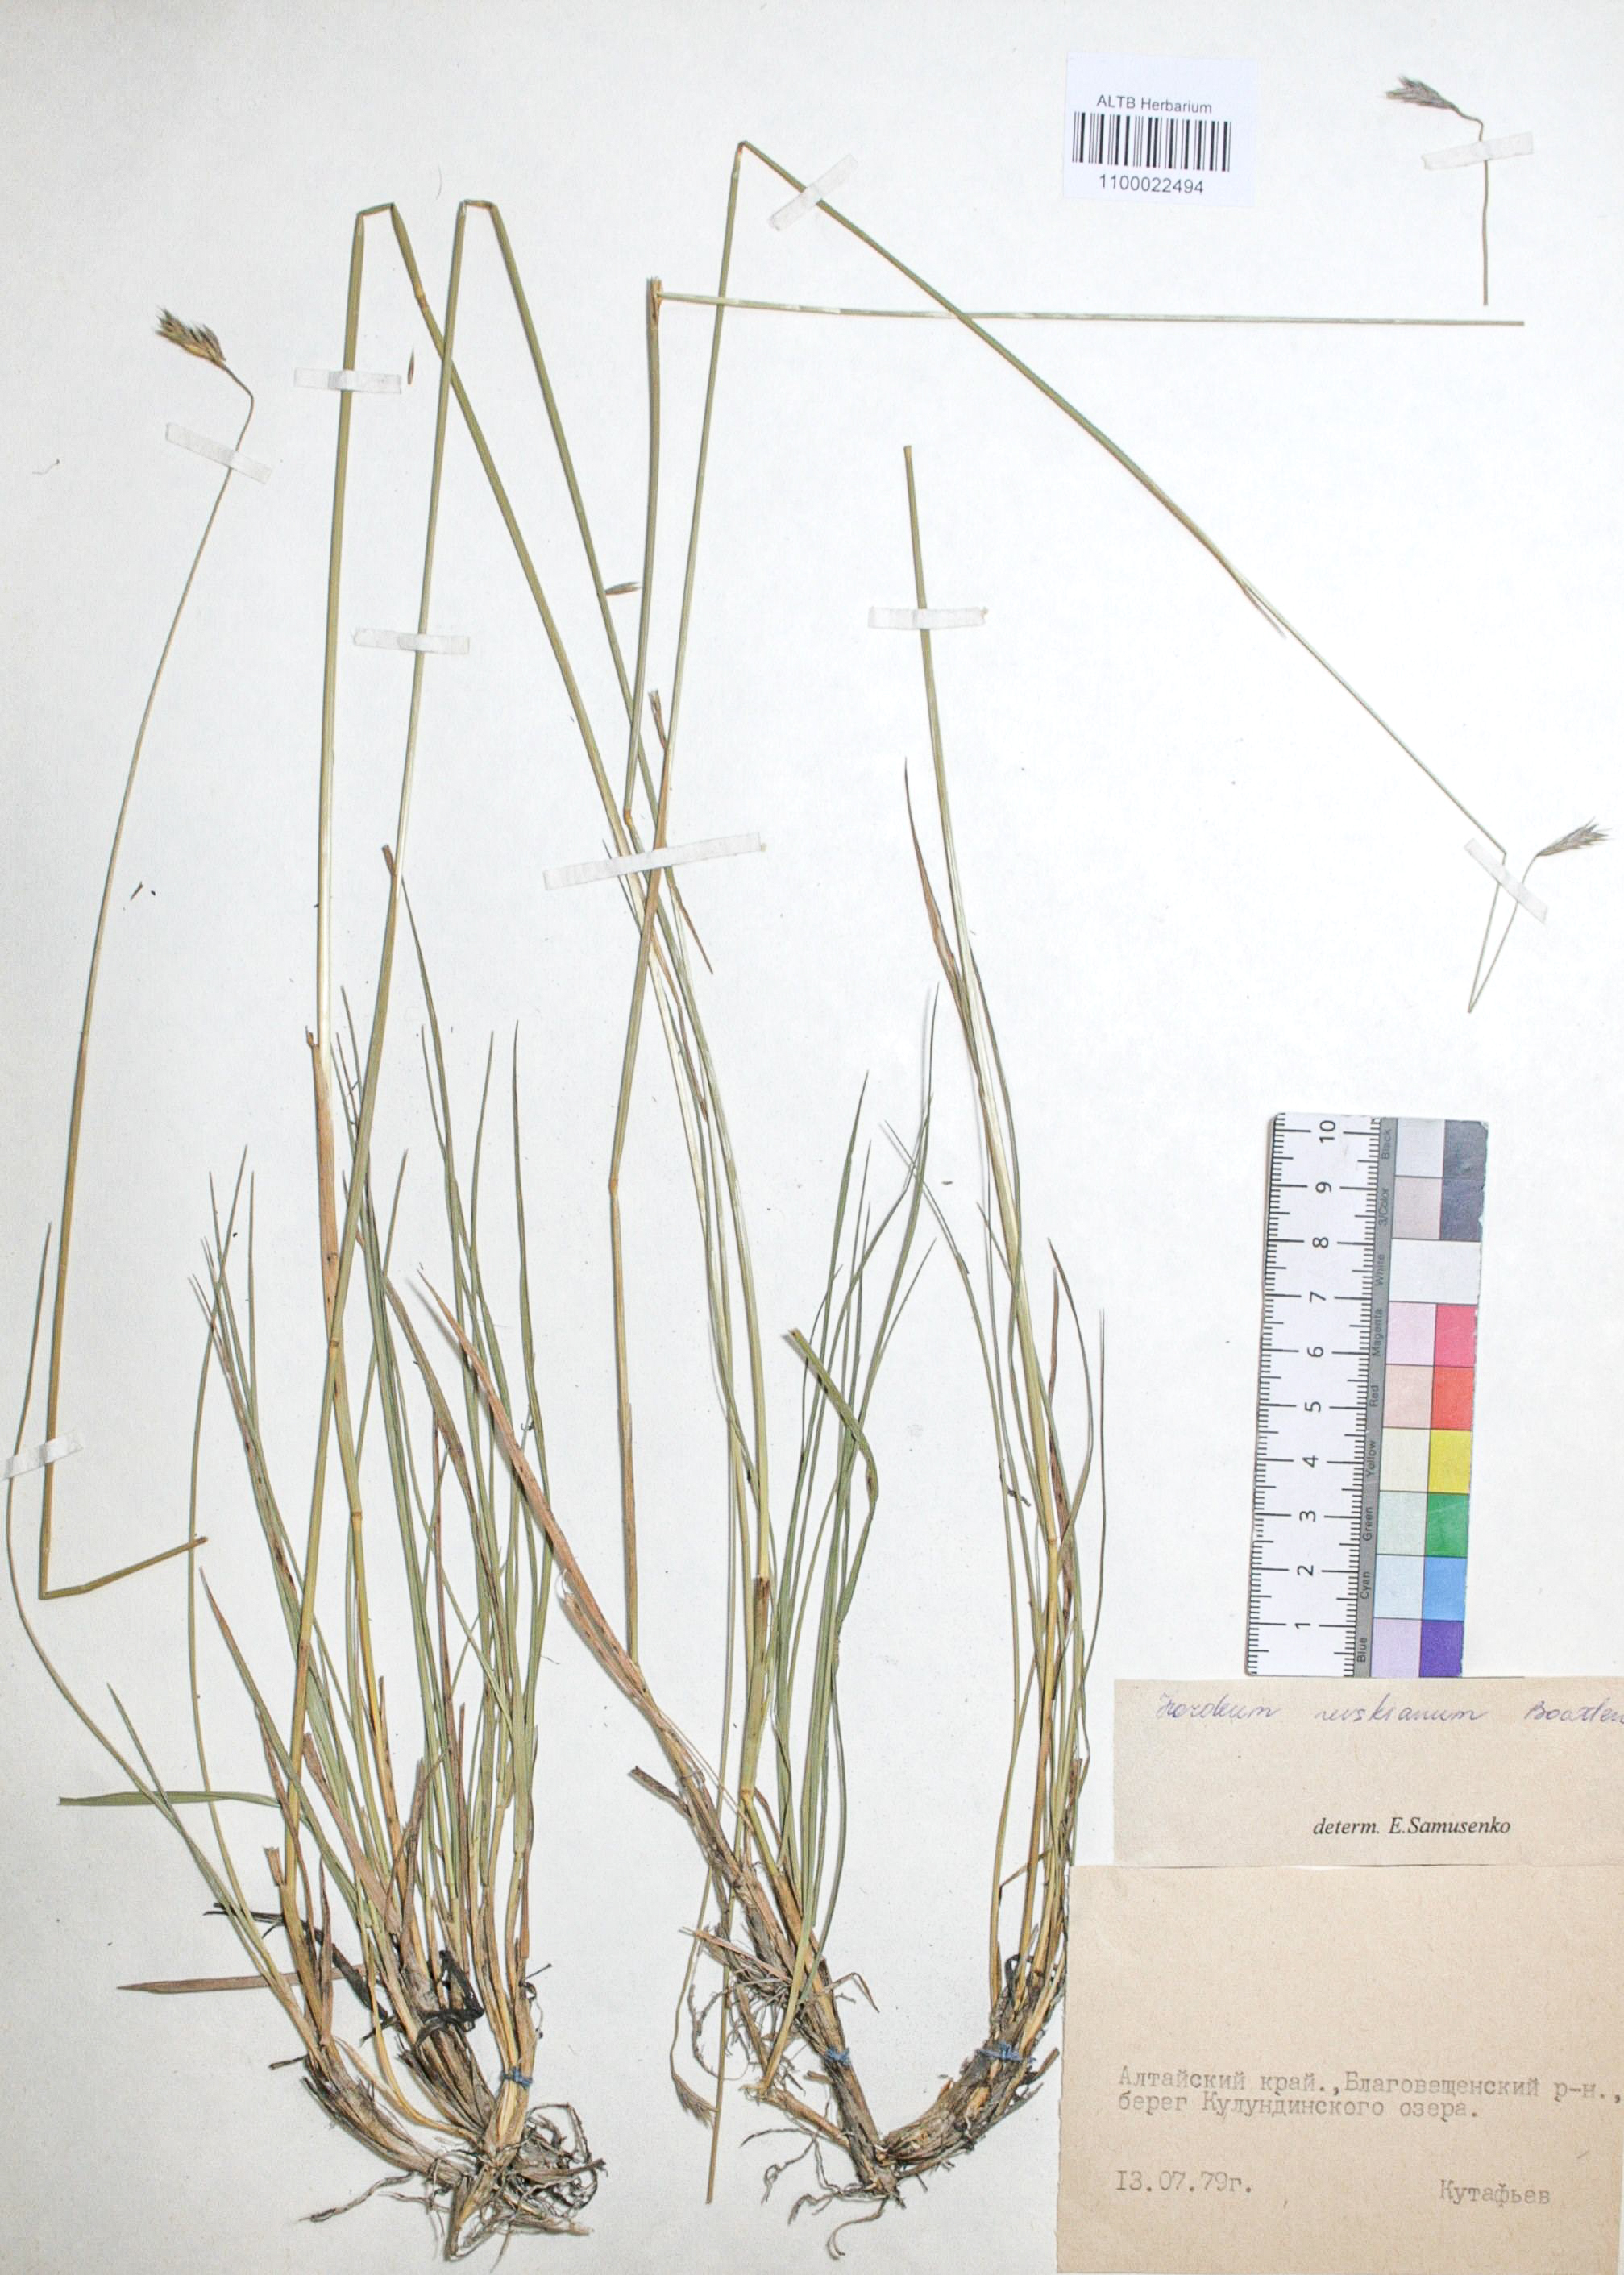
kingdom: Plantae
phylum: Tracheophyta
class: Liliopsida
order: Poales
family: Poaceae
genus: Hordeum
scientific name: Hordeum brevisubulatum
